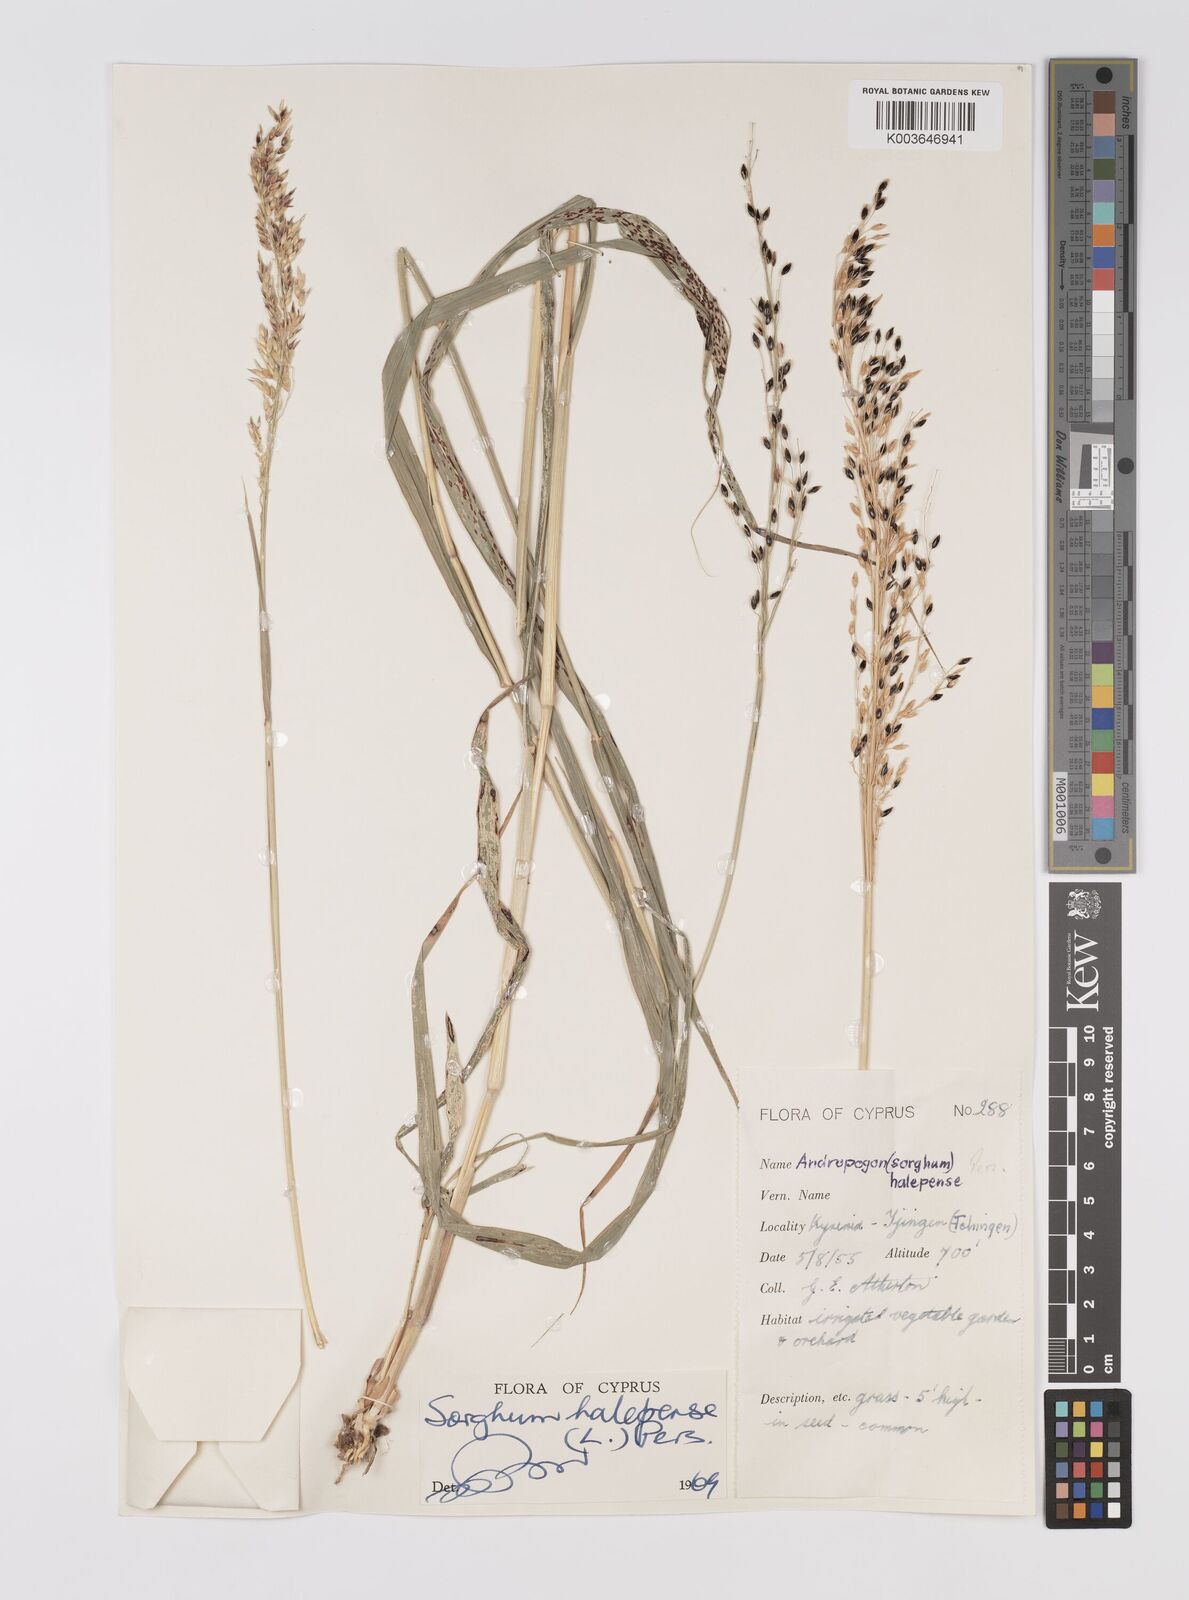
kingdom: Plantae
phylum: Tracheophyta
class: Liliopsida
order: Poales
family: Poaceae
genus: Sorghum
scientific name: Sorghum halepense
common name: Johnson-grass
